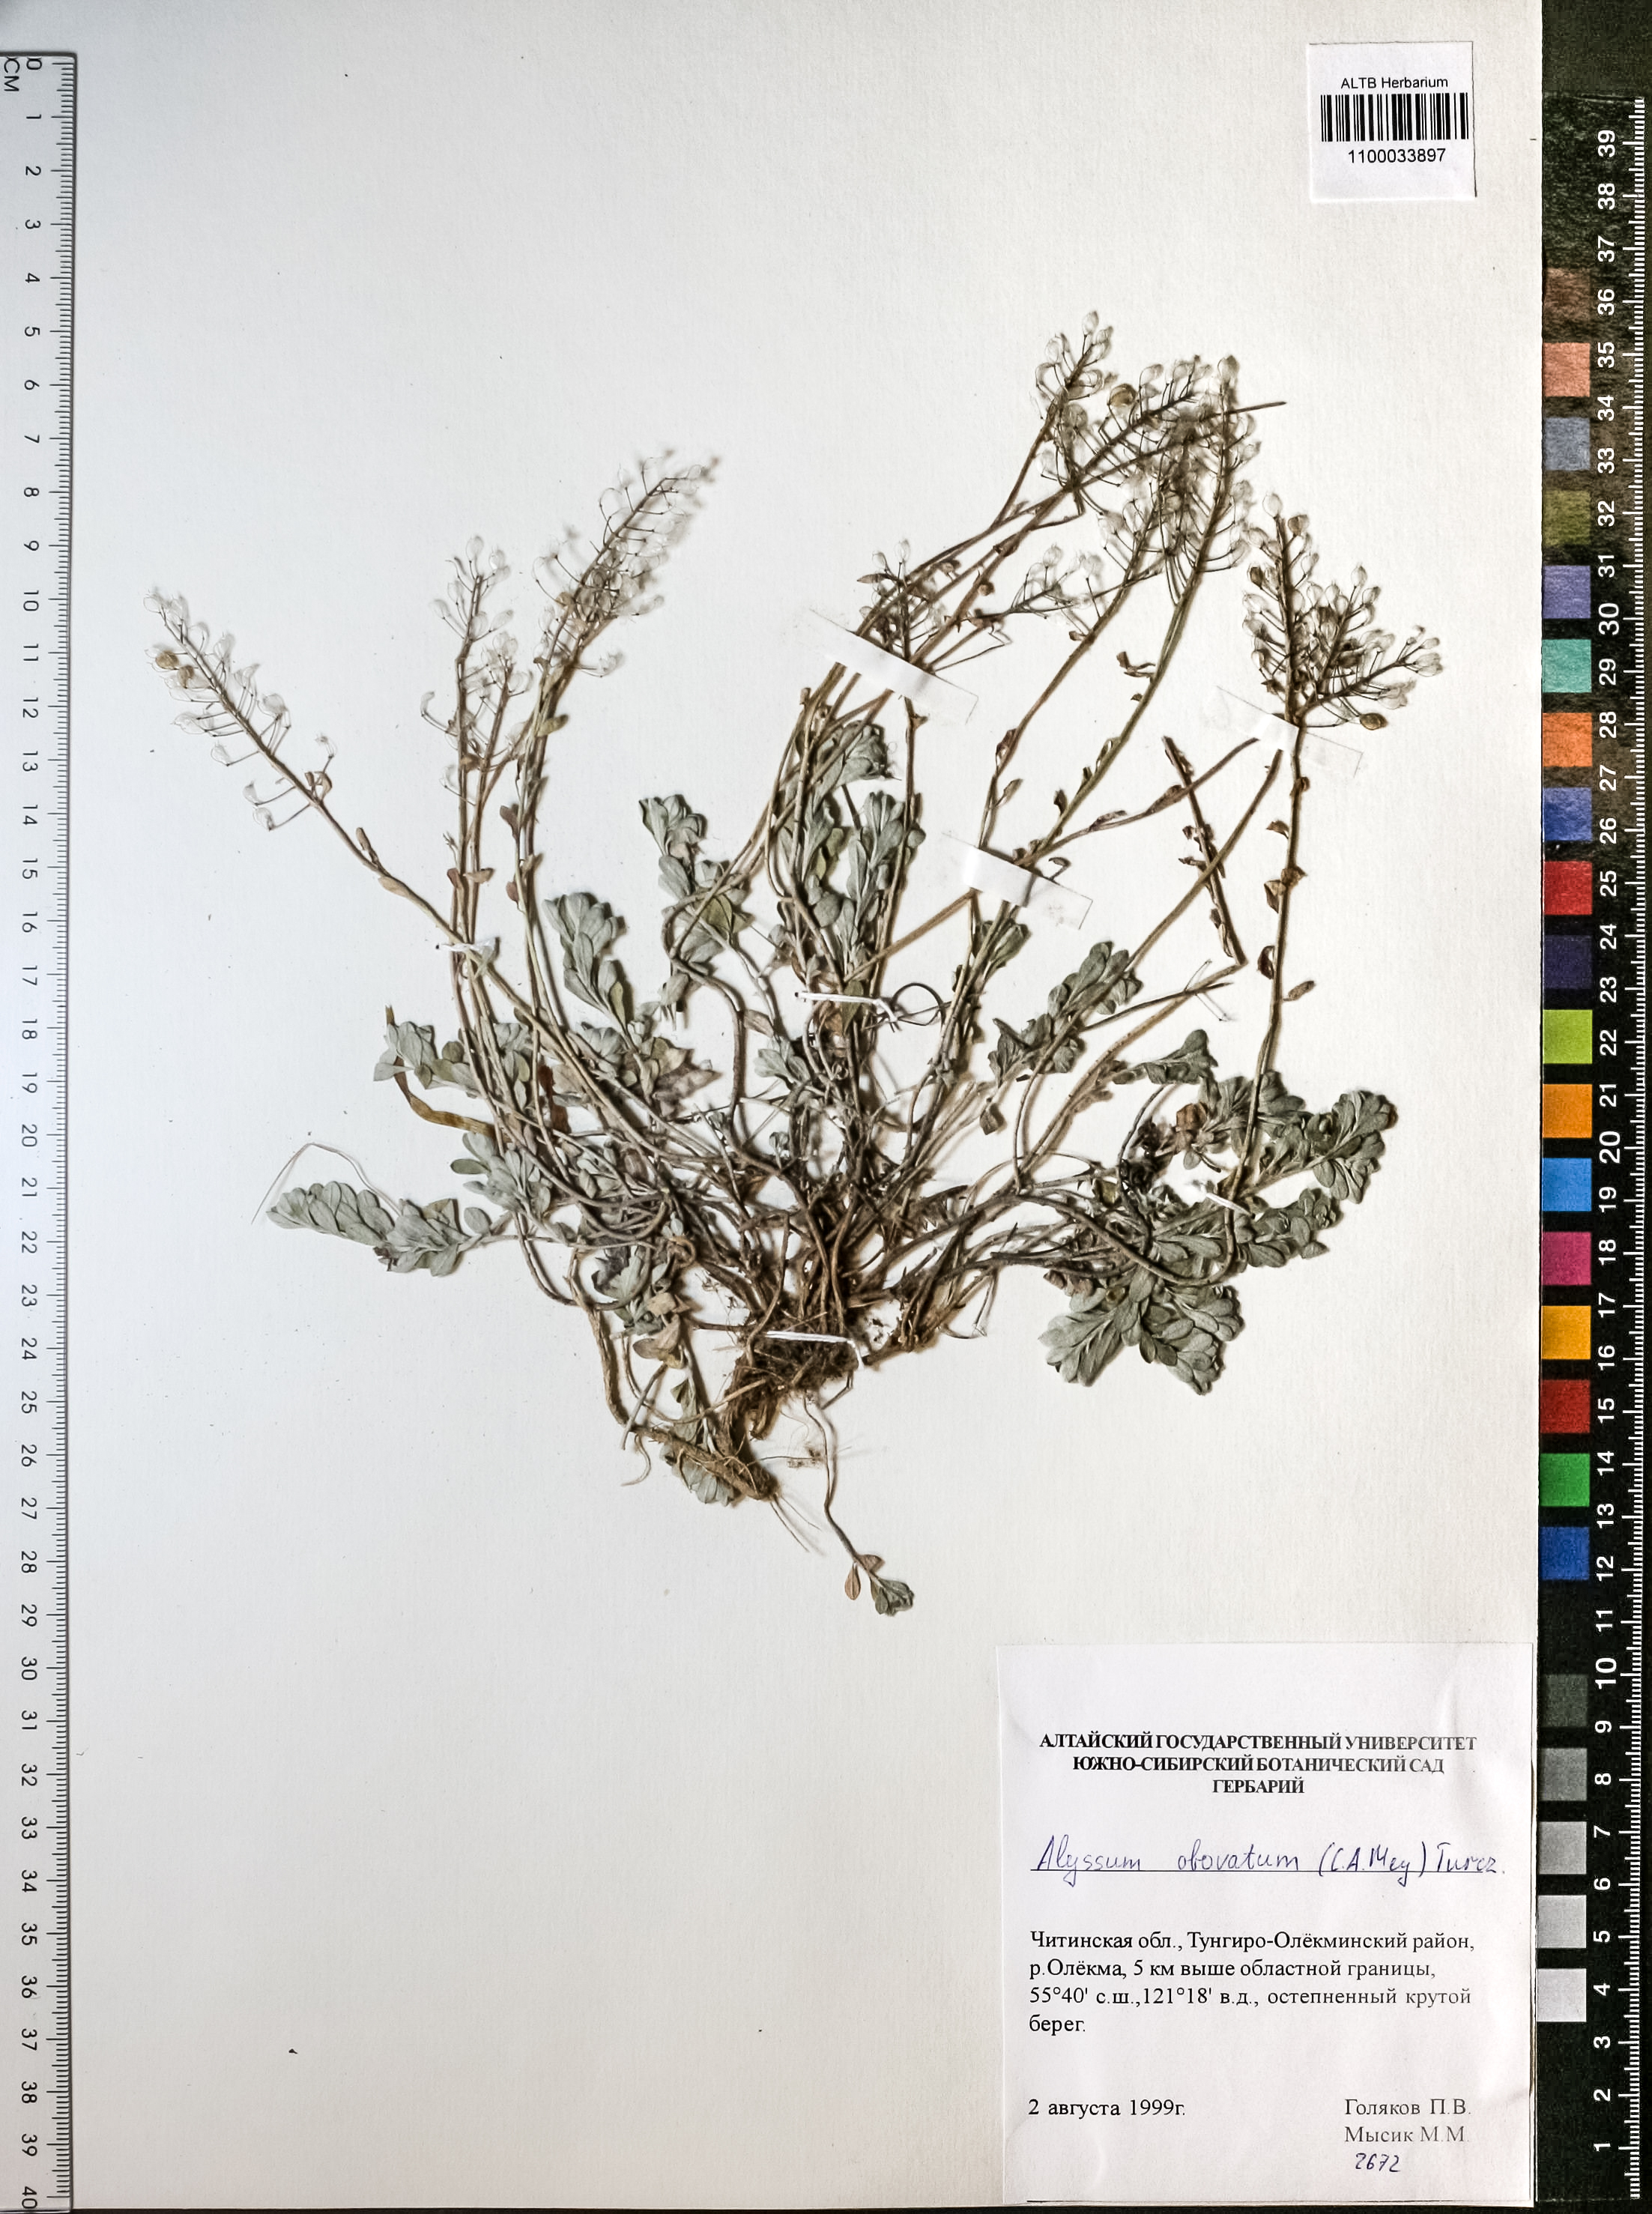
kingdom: Plantae
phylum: Tracheophyta
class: Magnoliopsida
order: Brassicales
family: Brassicaceae
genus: Odontarrhena
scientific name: Odontarrhena obovata
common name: American alyssum
